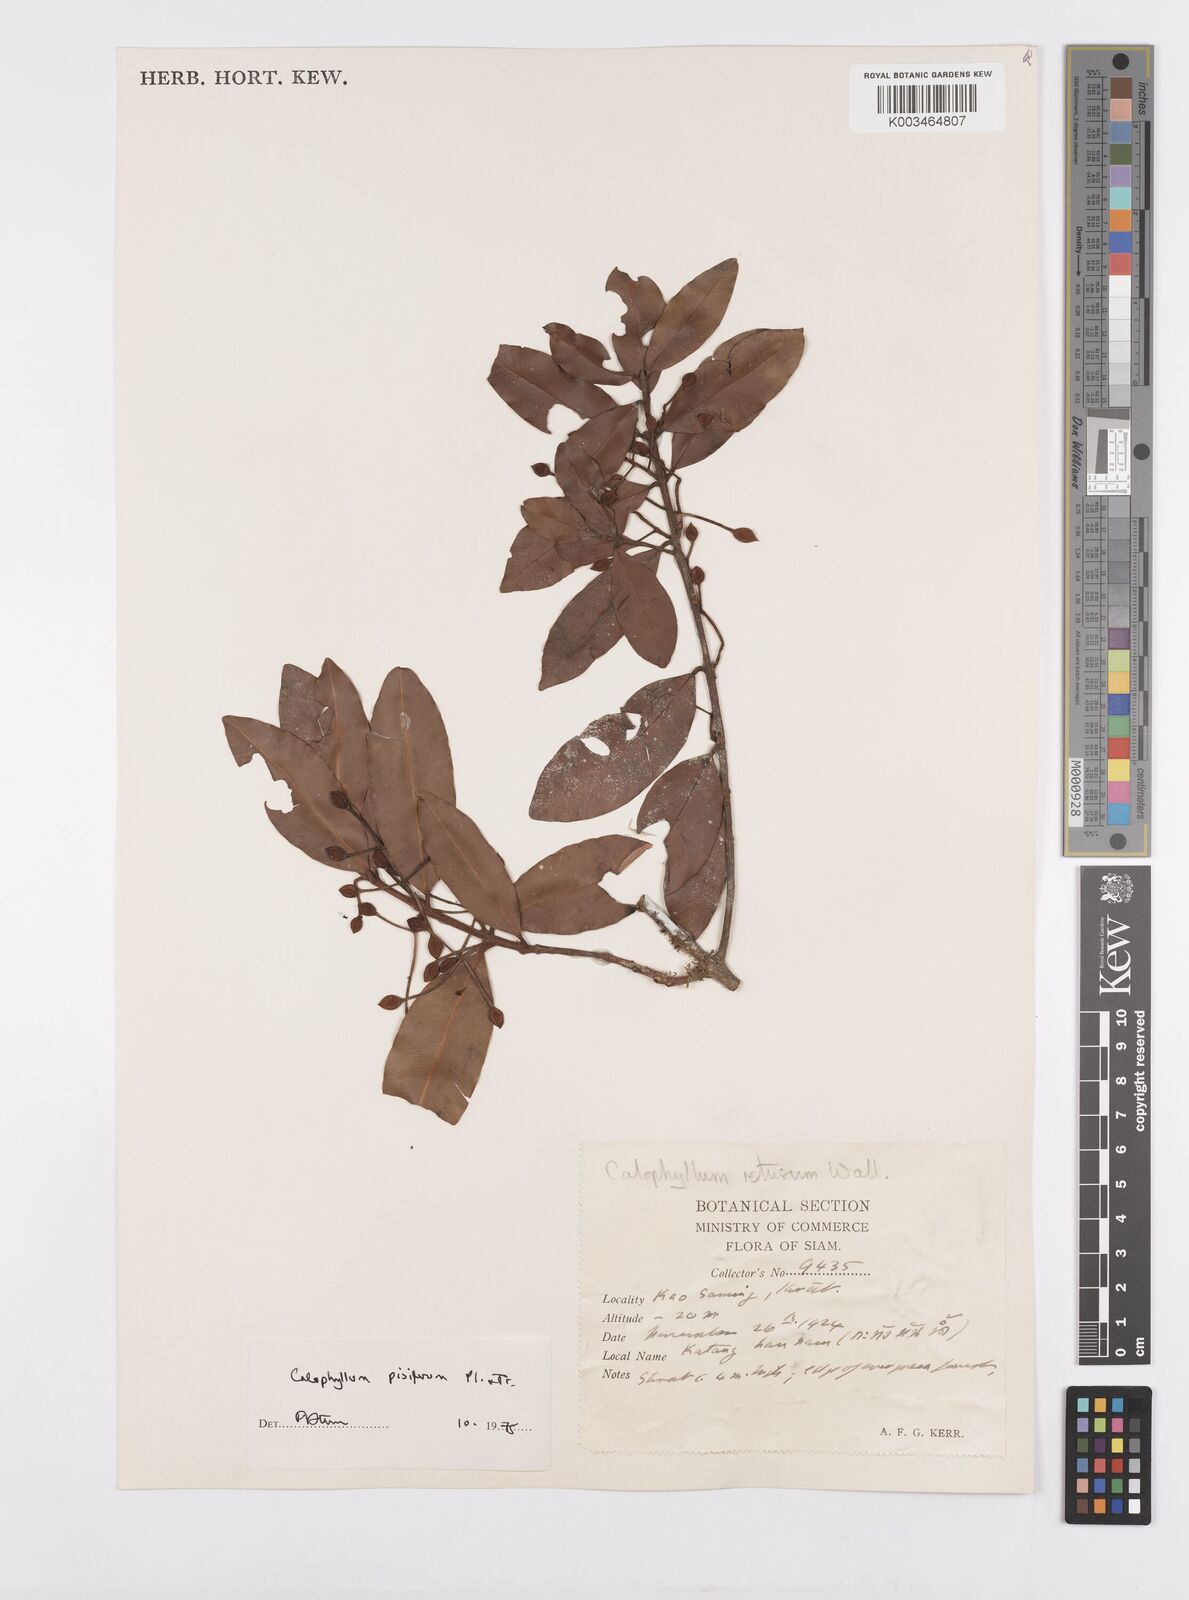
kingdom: Plantae
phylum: Tracheophyta
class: Magnoliopsida
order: Malpighiales
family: Calophyllaceae
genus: Calophyllum
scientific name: Calophyllum pisiferum
